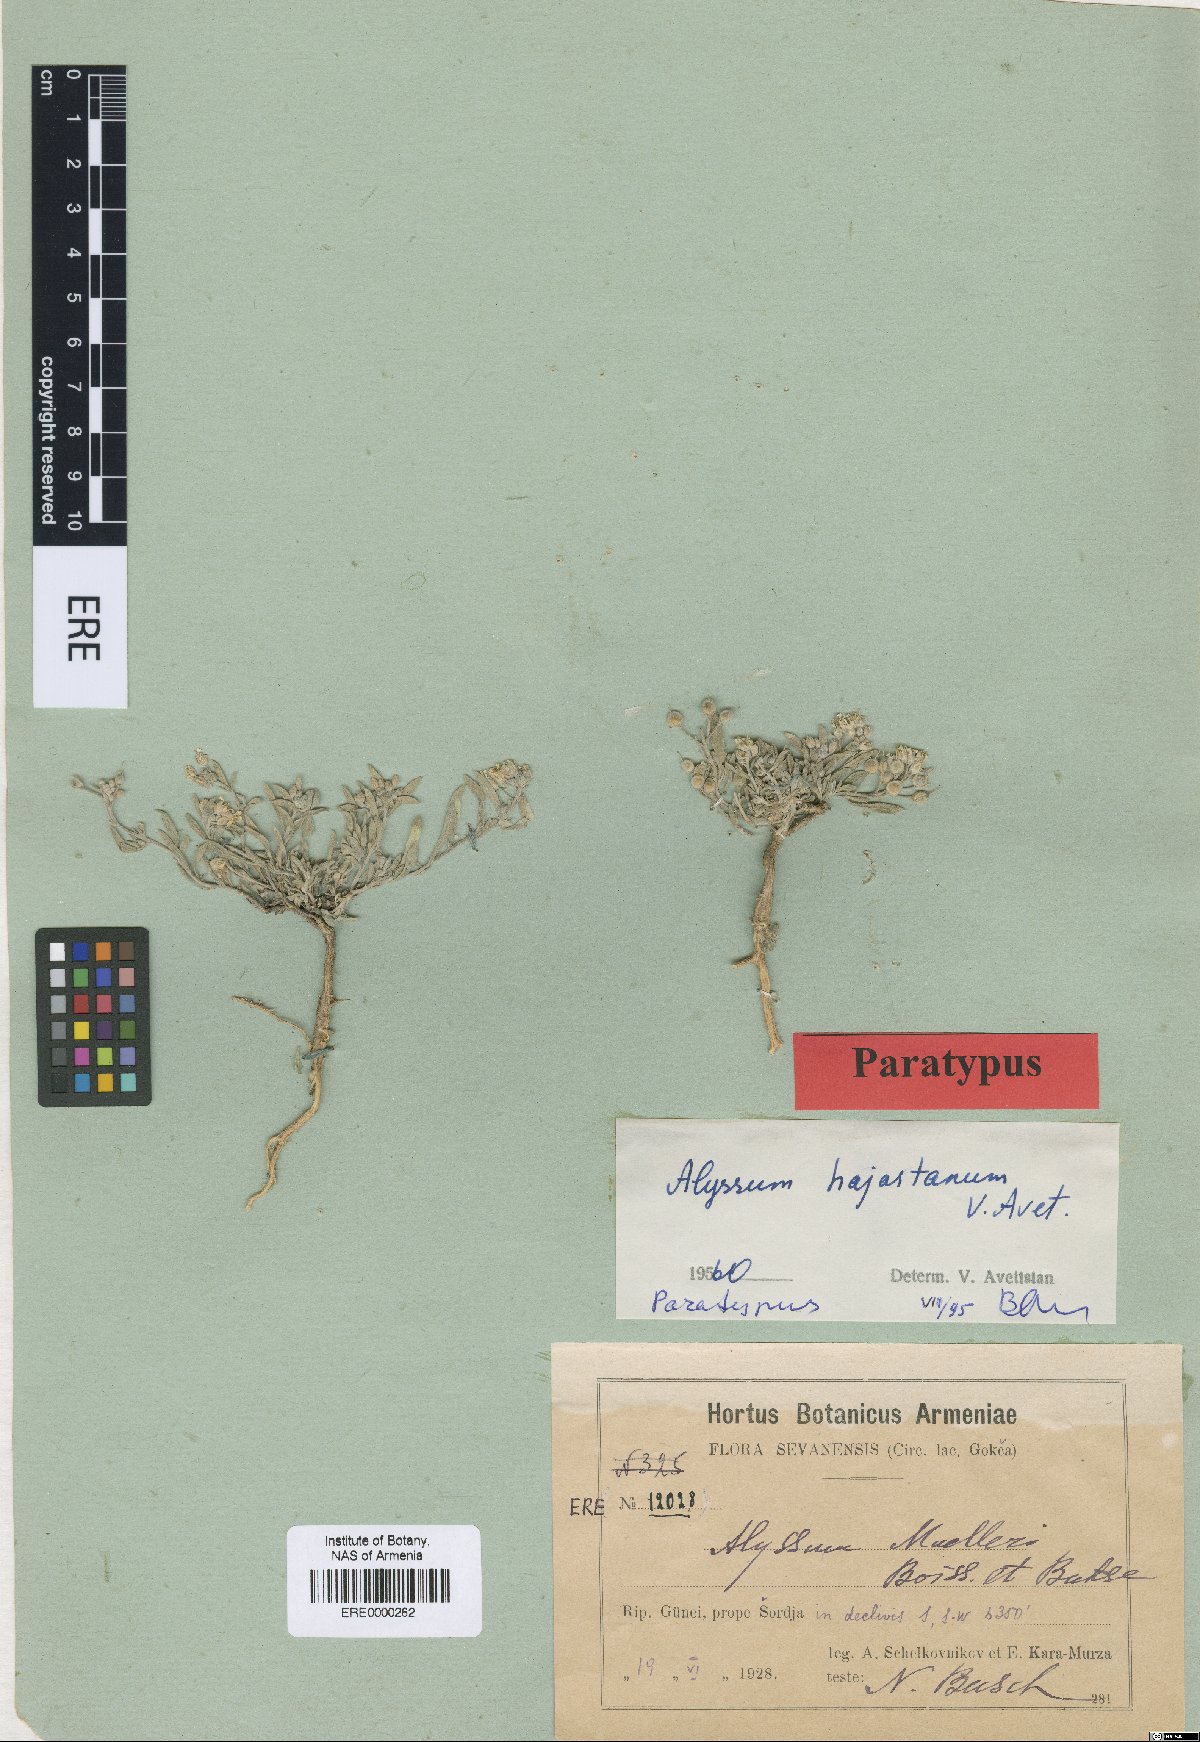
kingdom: Plantae
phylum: Tracheophyta
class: Magnoliopsida
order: Brassicales
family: Brassicaceae
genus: Alyssum
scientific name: Alyssum hajastanum
